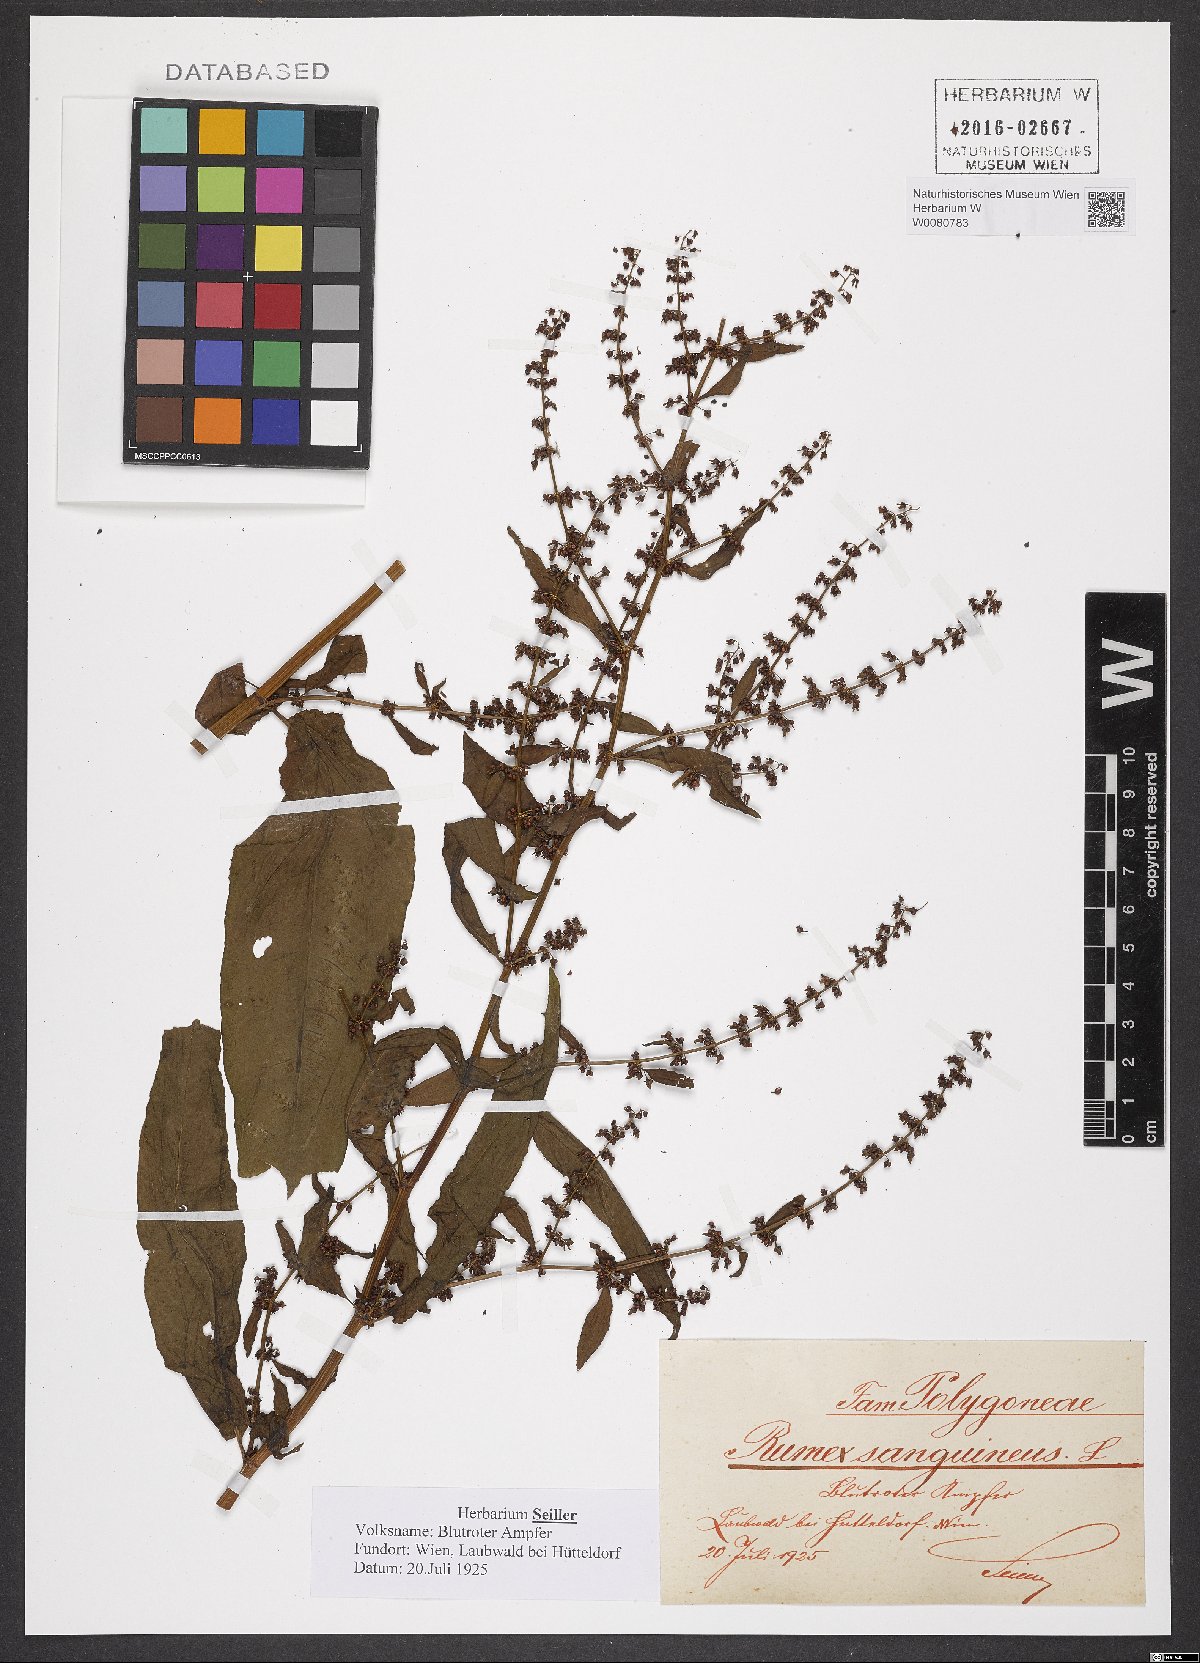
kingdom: Plantae
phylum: Tracheophyta
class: Magnoliopsida
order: Caryophyllales
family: Polygonaceae
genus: Rumex
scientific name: Rumex sanguineus
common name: Wood dock
